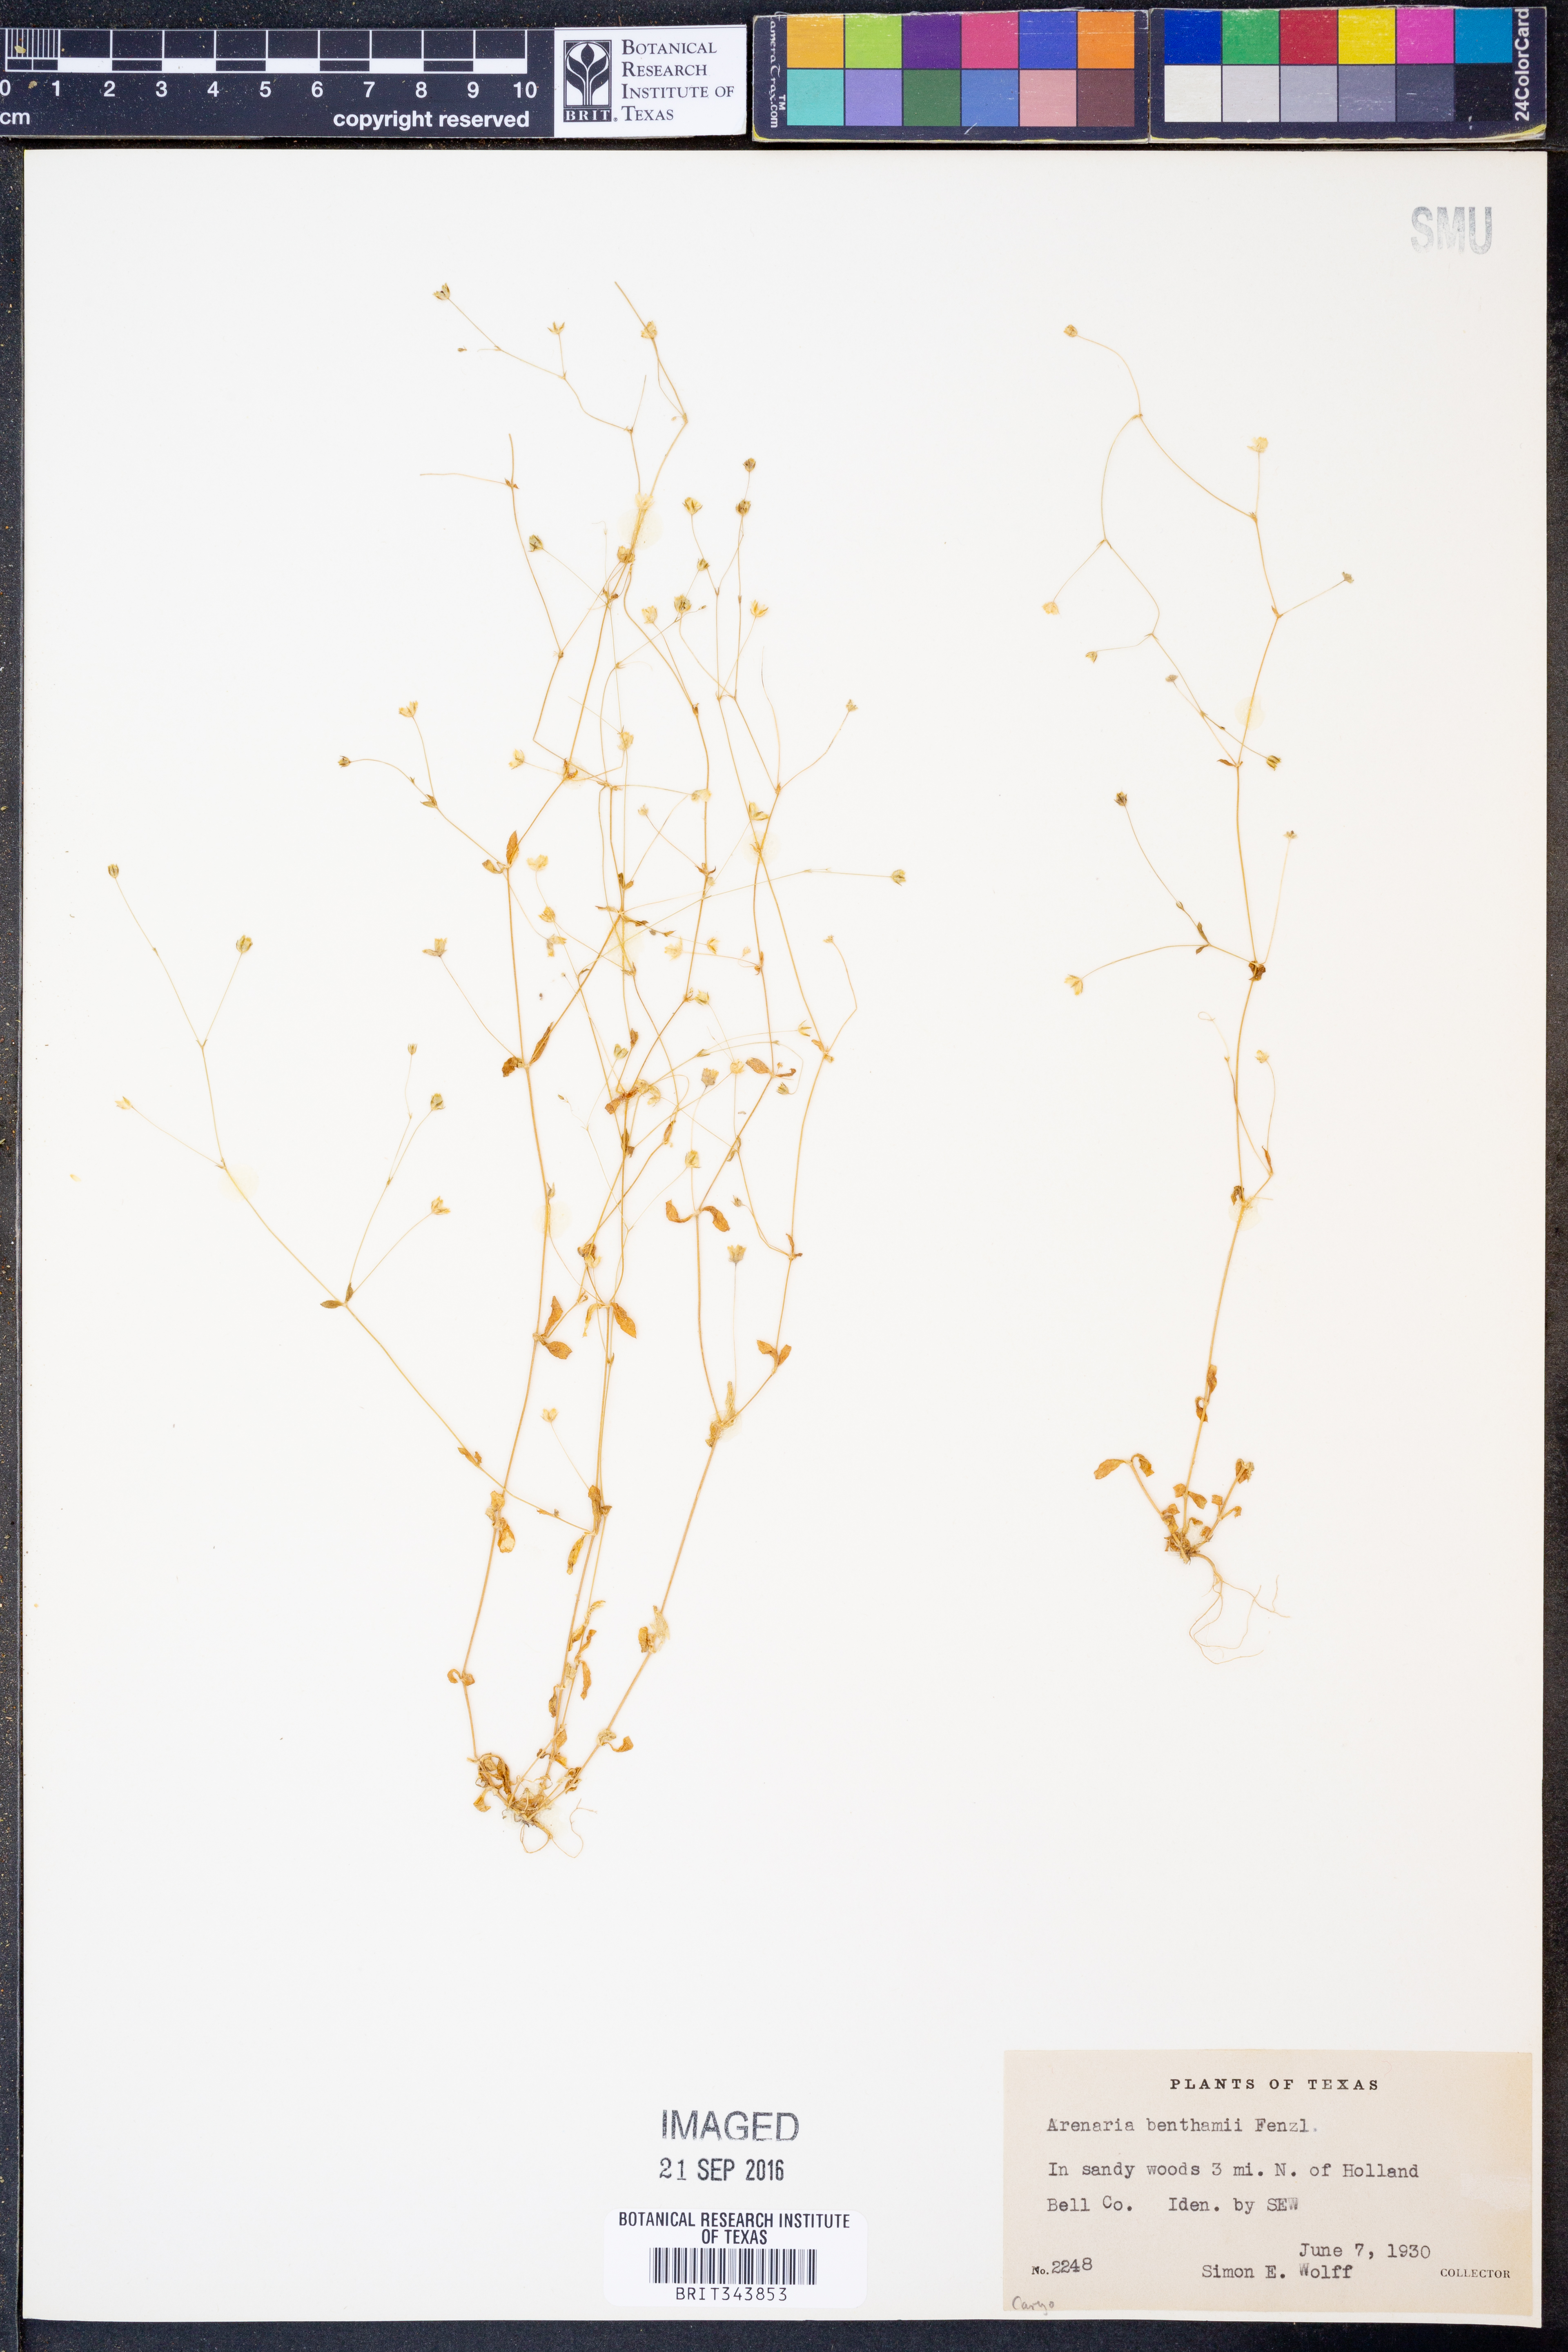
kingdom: Plantae
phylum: Tracheophyta
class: Magnoliopsida
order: Caryophyllales
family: Caryophyllaceae
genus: Arenaria
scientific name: Arenaria benthamii
